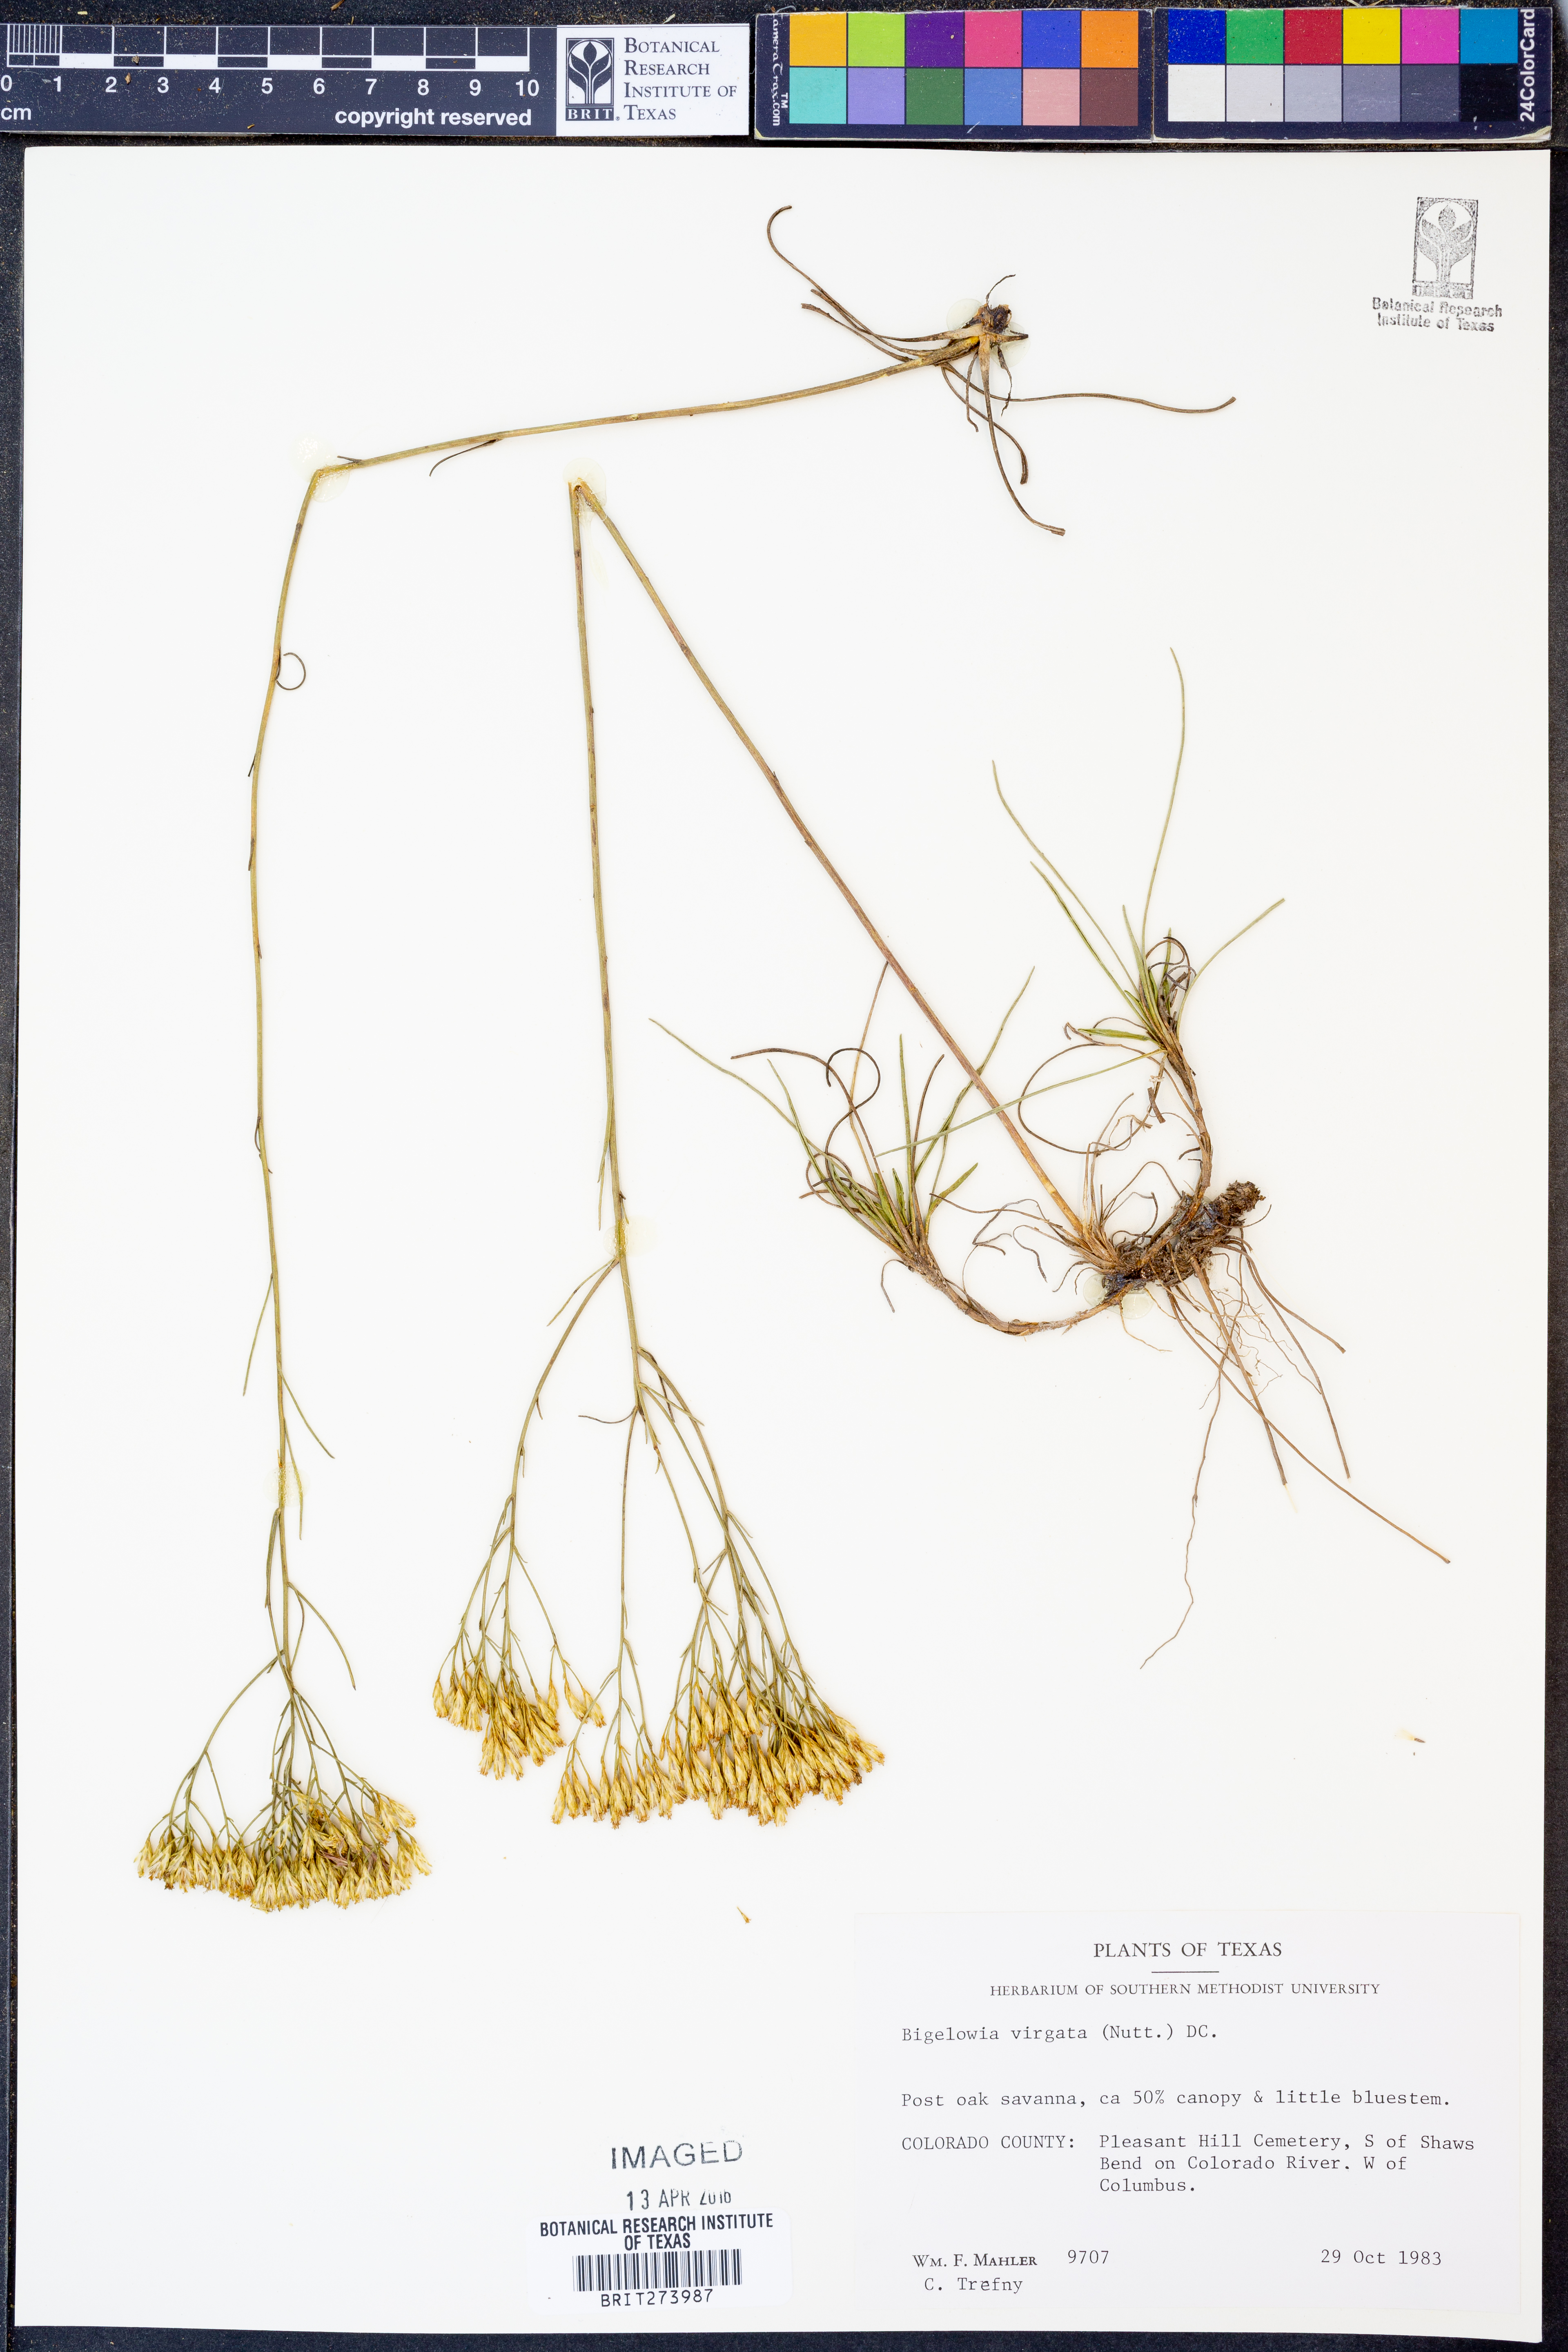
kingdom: Plantae
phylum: Tracheophyta
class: Magnoliopsida
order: Asterales
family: Asteraceae
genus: Bigelowia
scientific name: Bigelowia nudata
